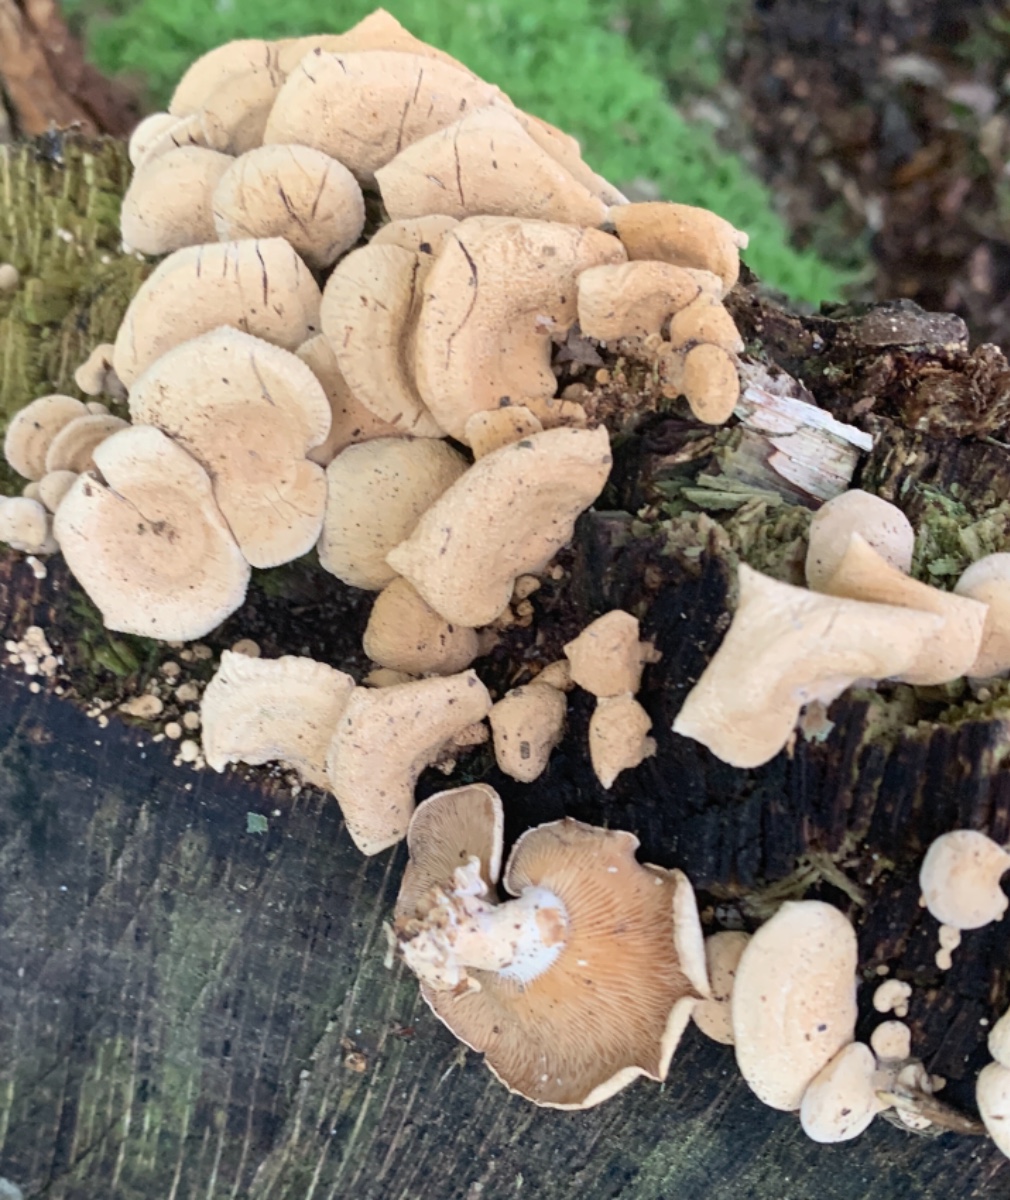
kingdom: Fungi
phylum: Basidiomycota
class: Agaricomycetes
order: Agaricales
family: Mycenaceae
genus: Panellus
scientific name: Panellus stipticus
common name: kliddet epaulethat
